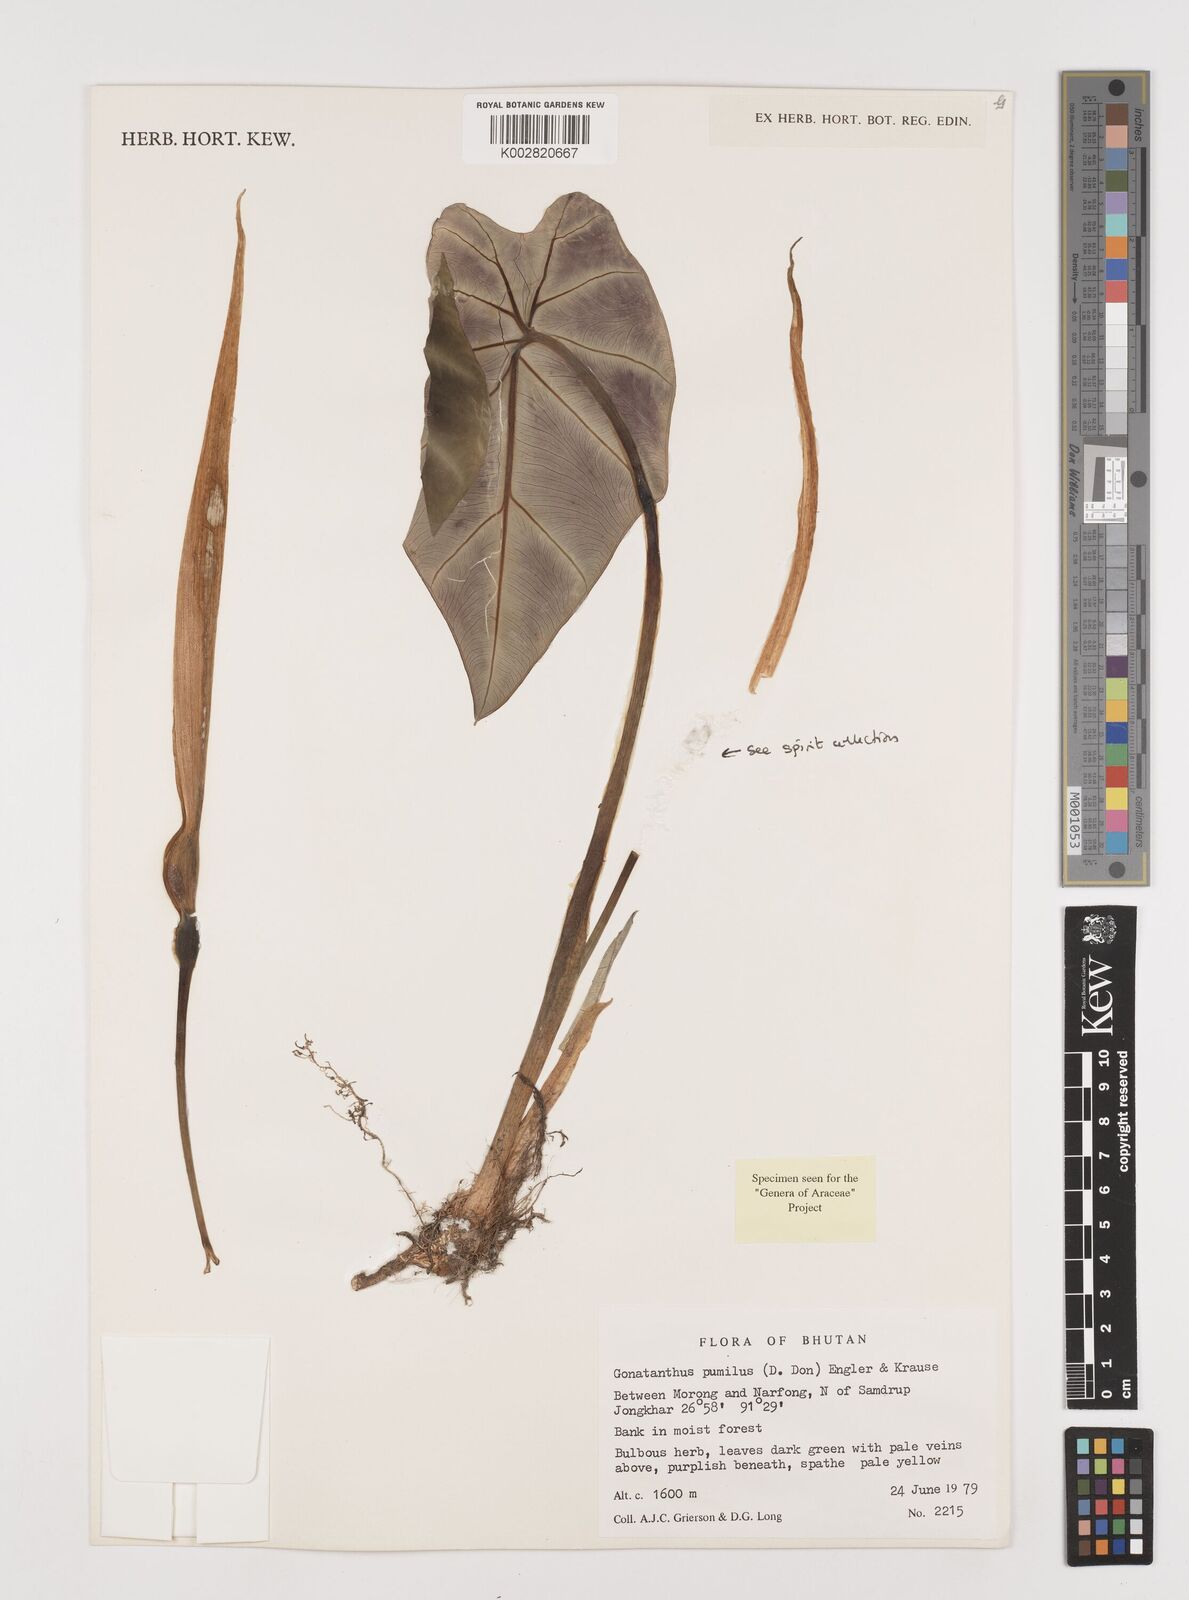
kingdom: Plantae
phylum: Tracheophyta
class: Liliopsida
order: Alismatales
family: Araceae
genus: Remusatia
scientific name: Remusatia pumila
